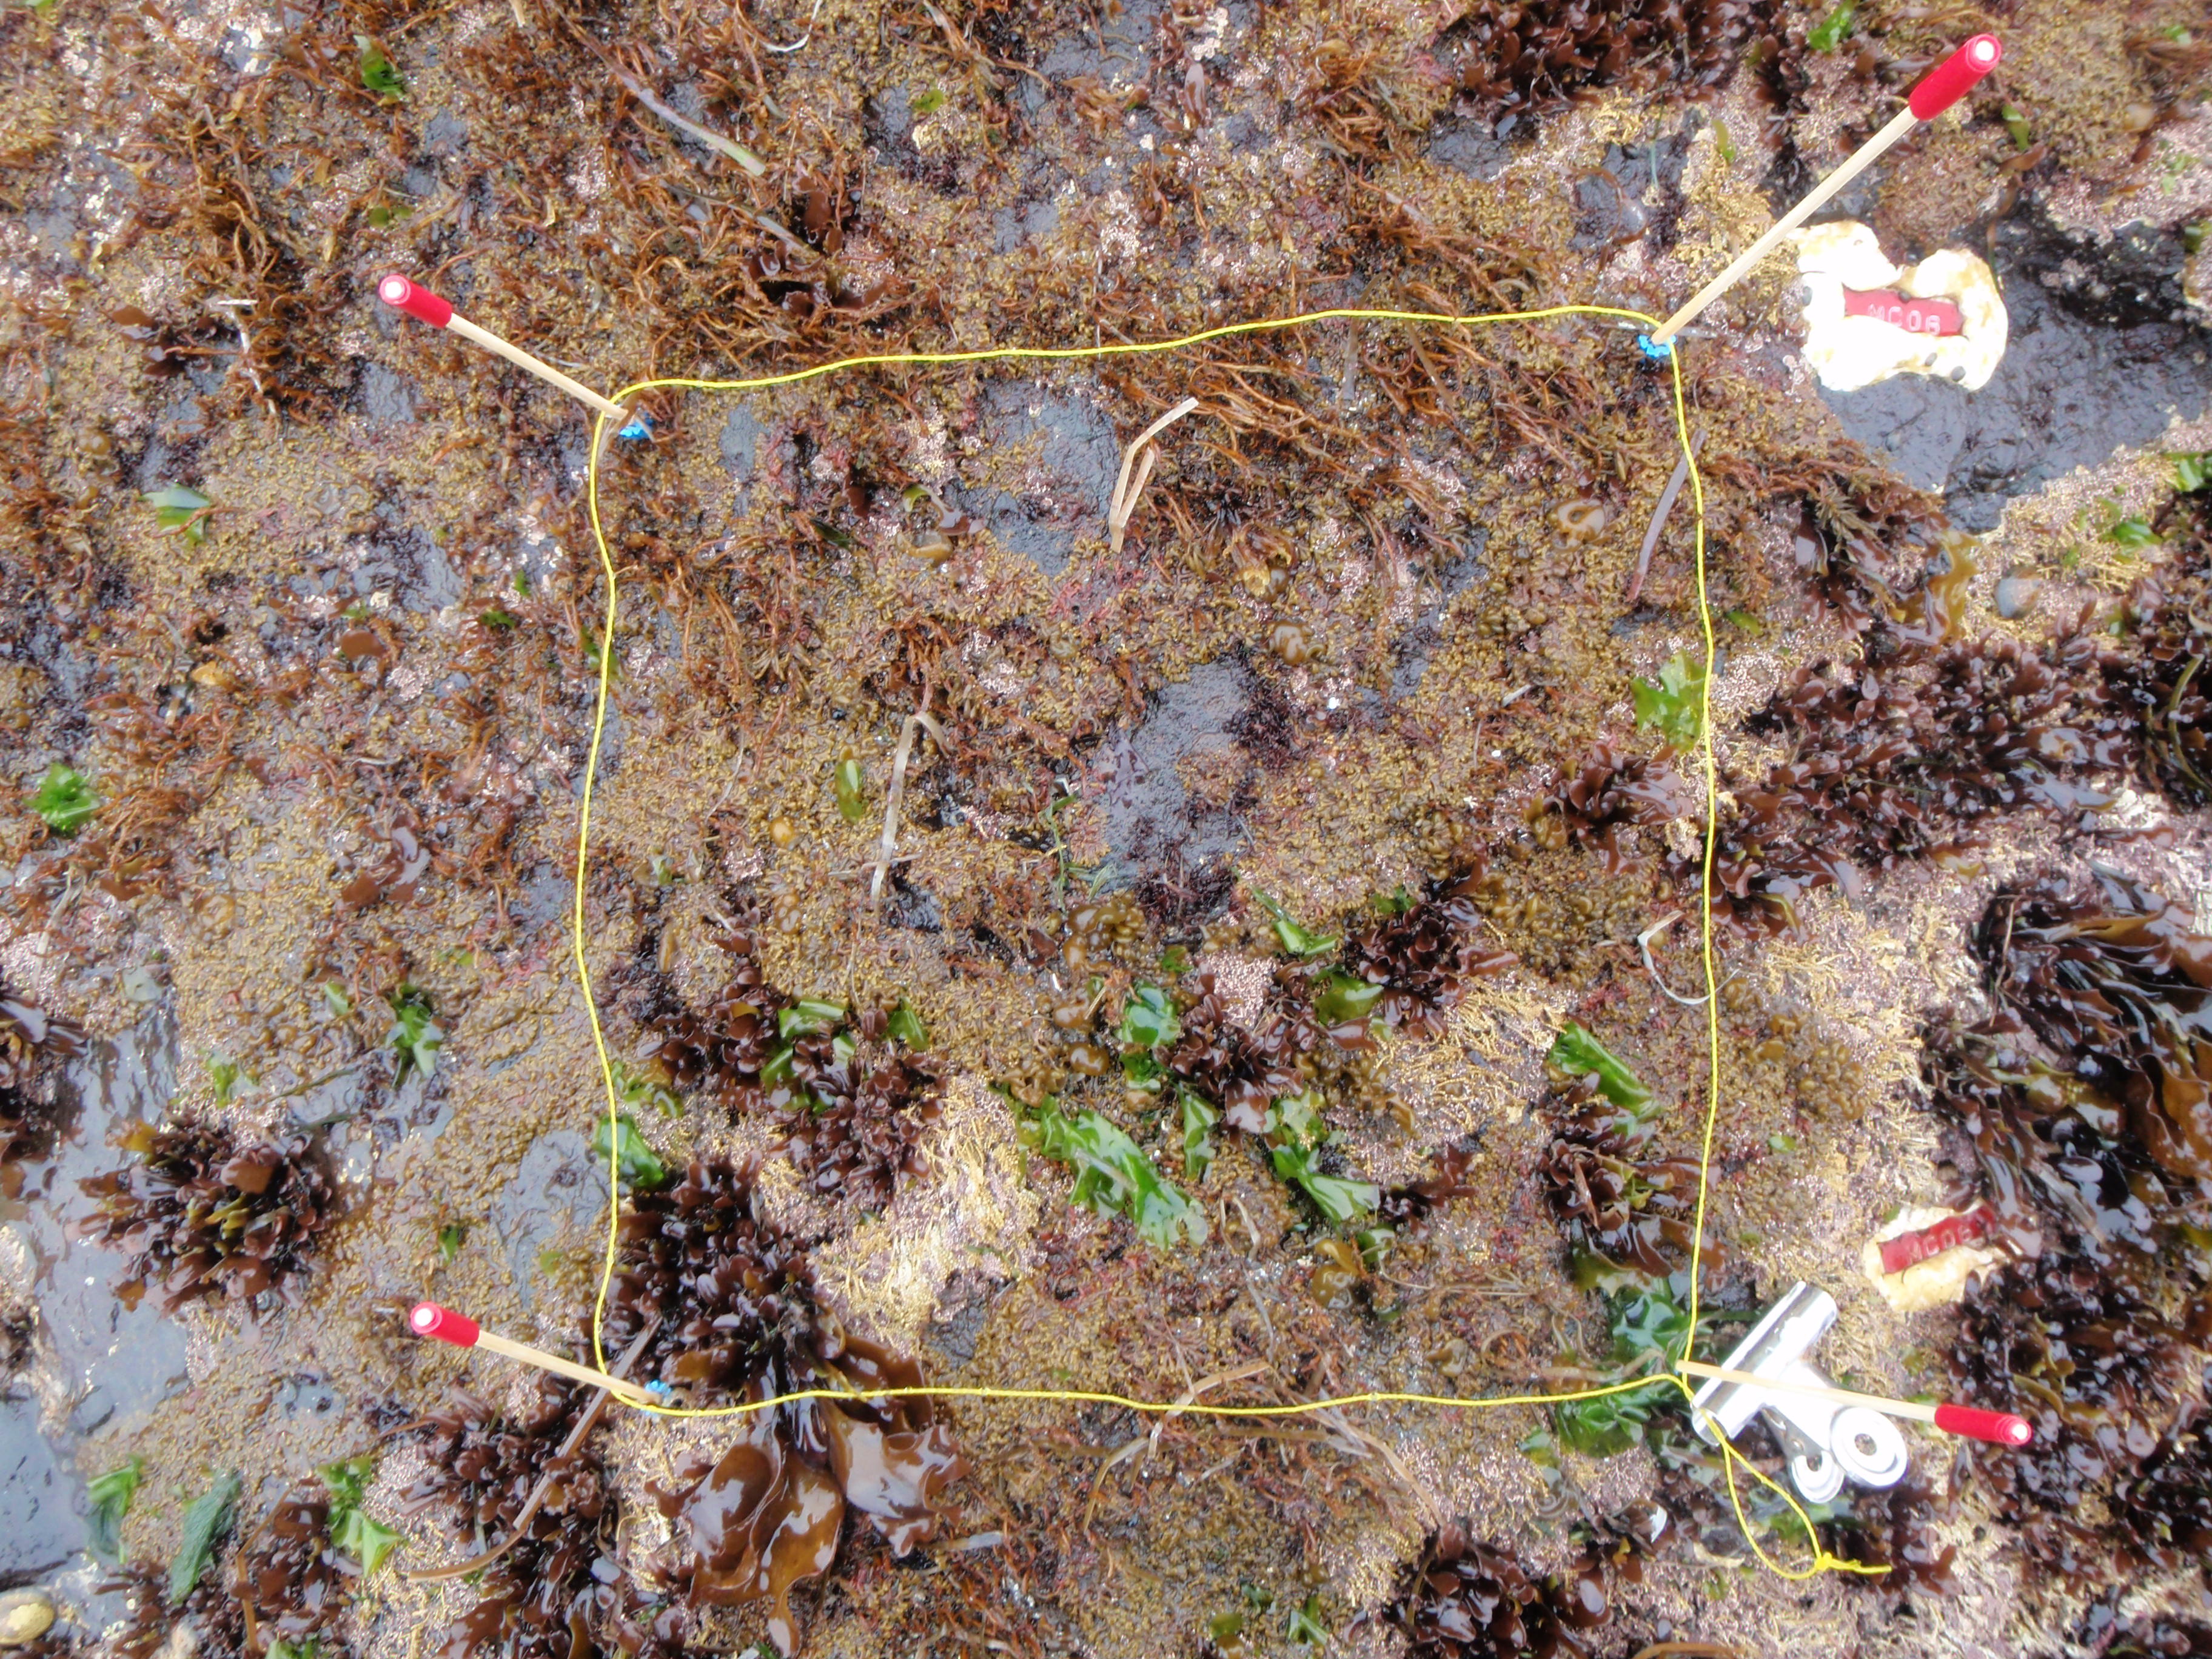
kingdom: Chromista
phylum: Ochrophyta
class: Phaeophyceae
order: Scytosiphonales
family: Scytosiphonaceae
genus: Analipus
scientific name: Analipus japonicus
